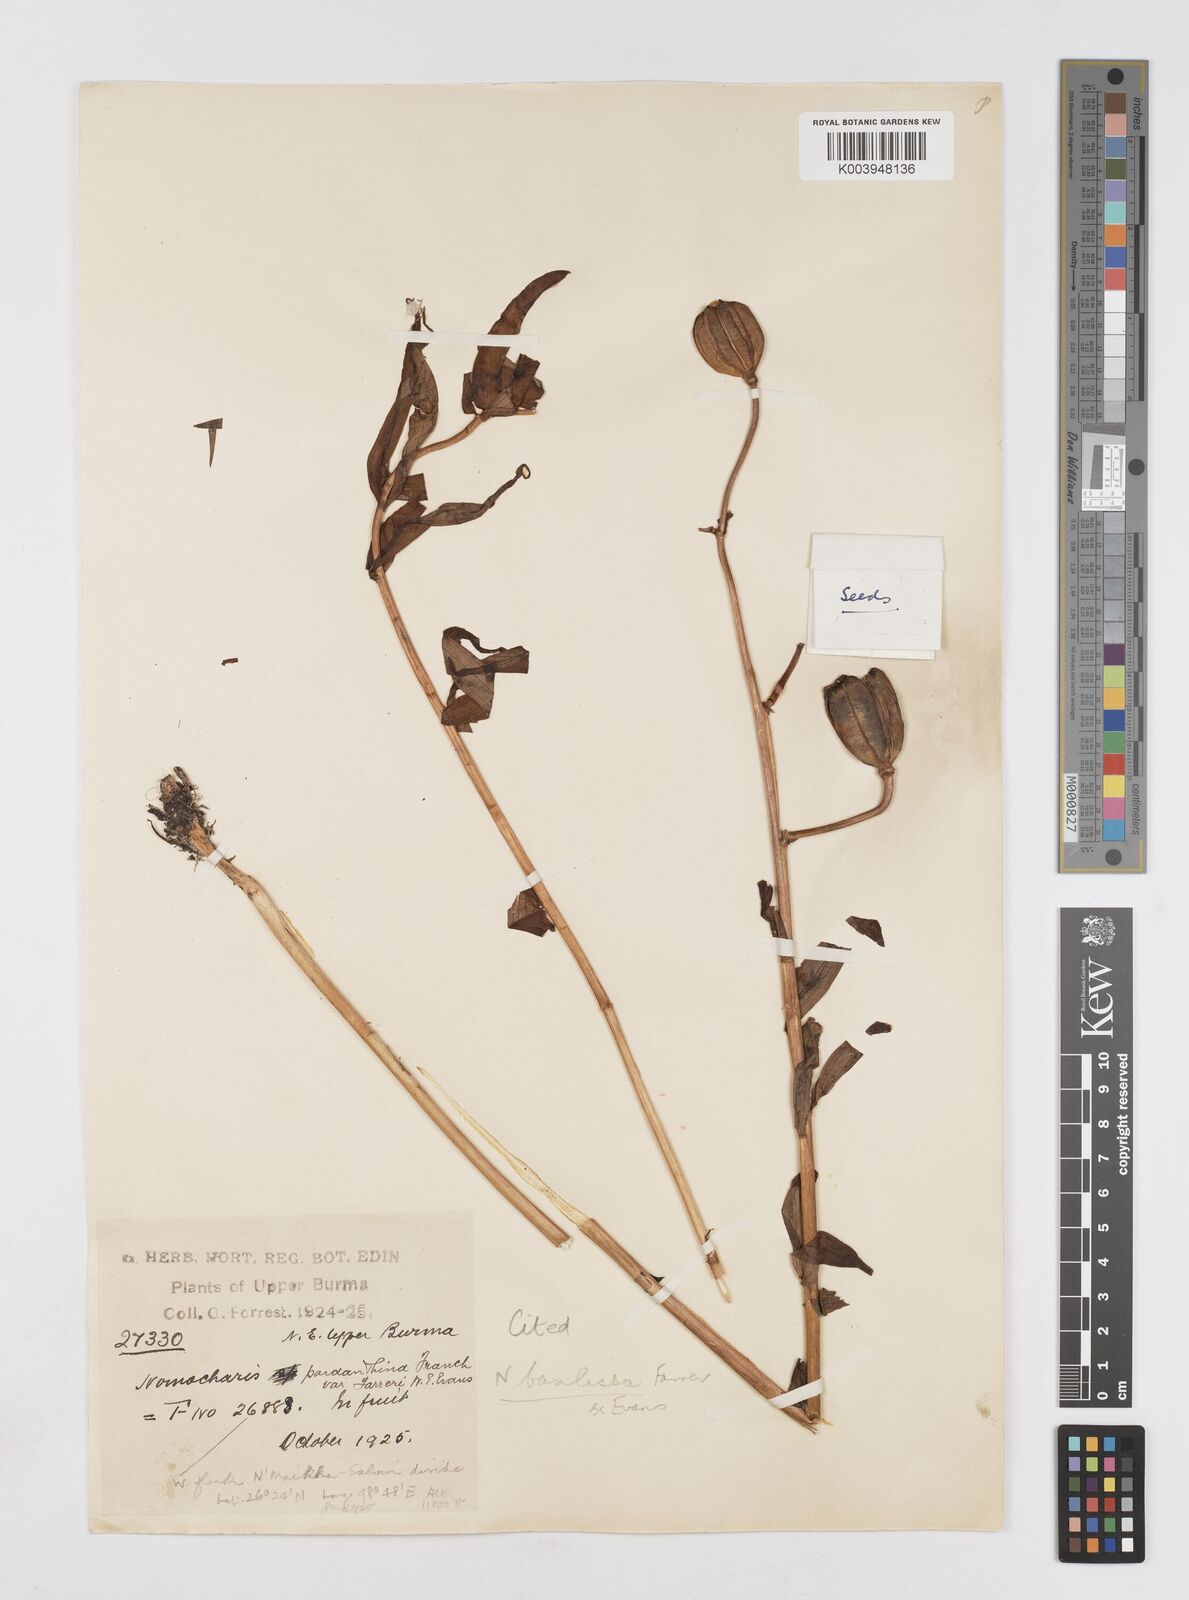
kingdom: Plantae
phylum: Tracheophyta
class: Liliopsida
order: Liliales
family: Liliaceae
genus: Lilium
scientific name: Lilium basilissum
